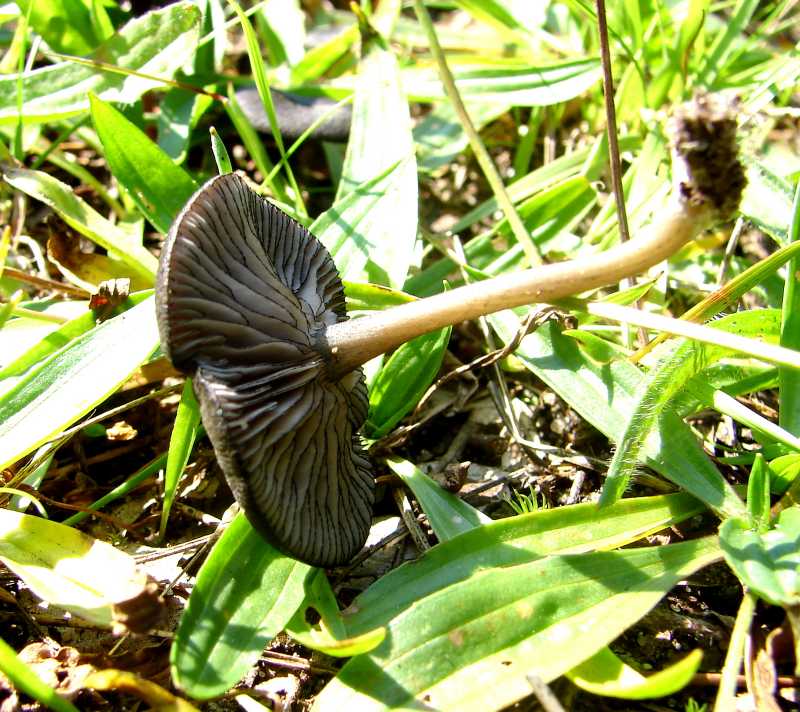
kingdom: Fungi
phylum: Basidiomycota
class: Agaricomycetes
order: Agaricales
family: Entolomataceae
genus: Entoloma
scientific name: Entoloma
